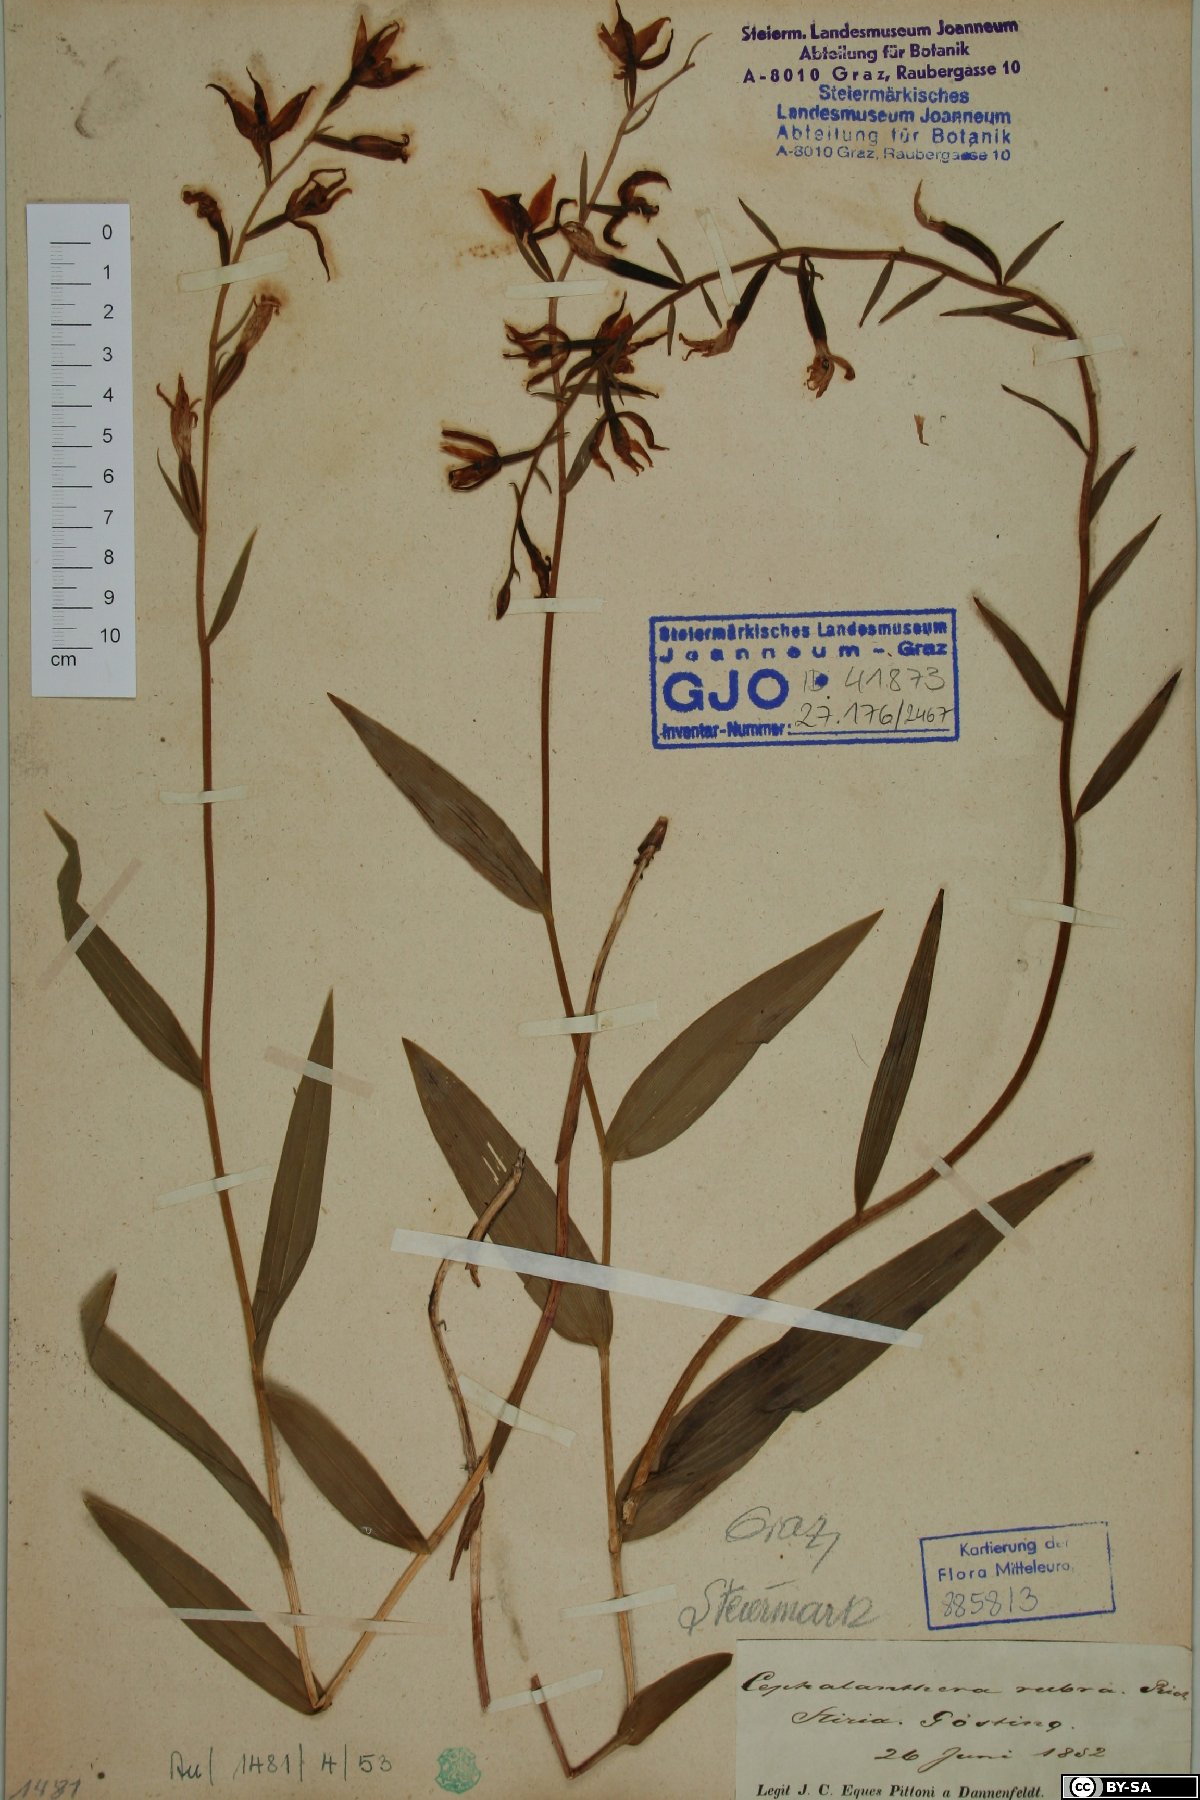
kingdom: Plantae
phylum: Tracheophyta
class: Liliopsida
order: Asparagales
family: Orchidaceae
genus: Cephalanthera
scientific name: Cephalanthera rubra
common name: Red helleborine
